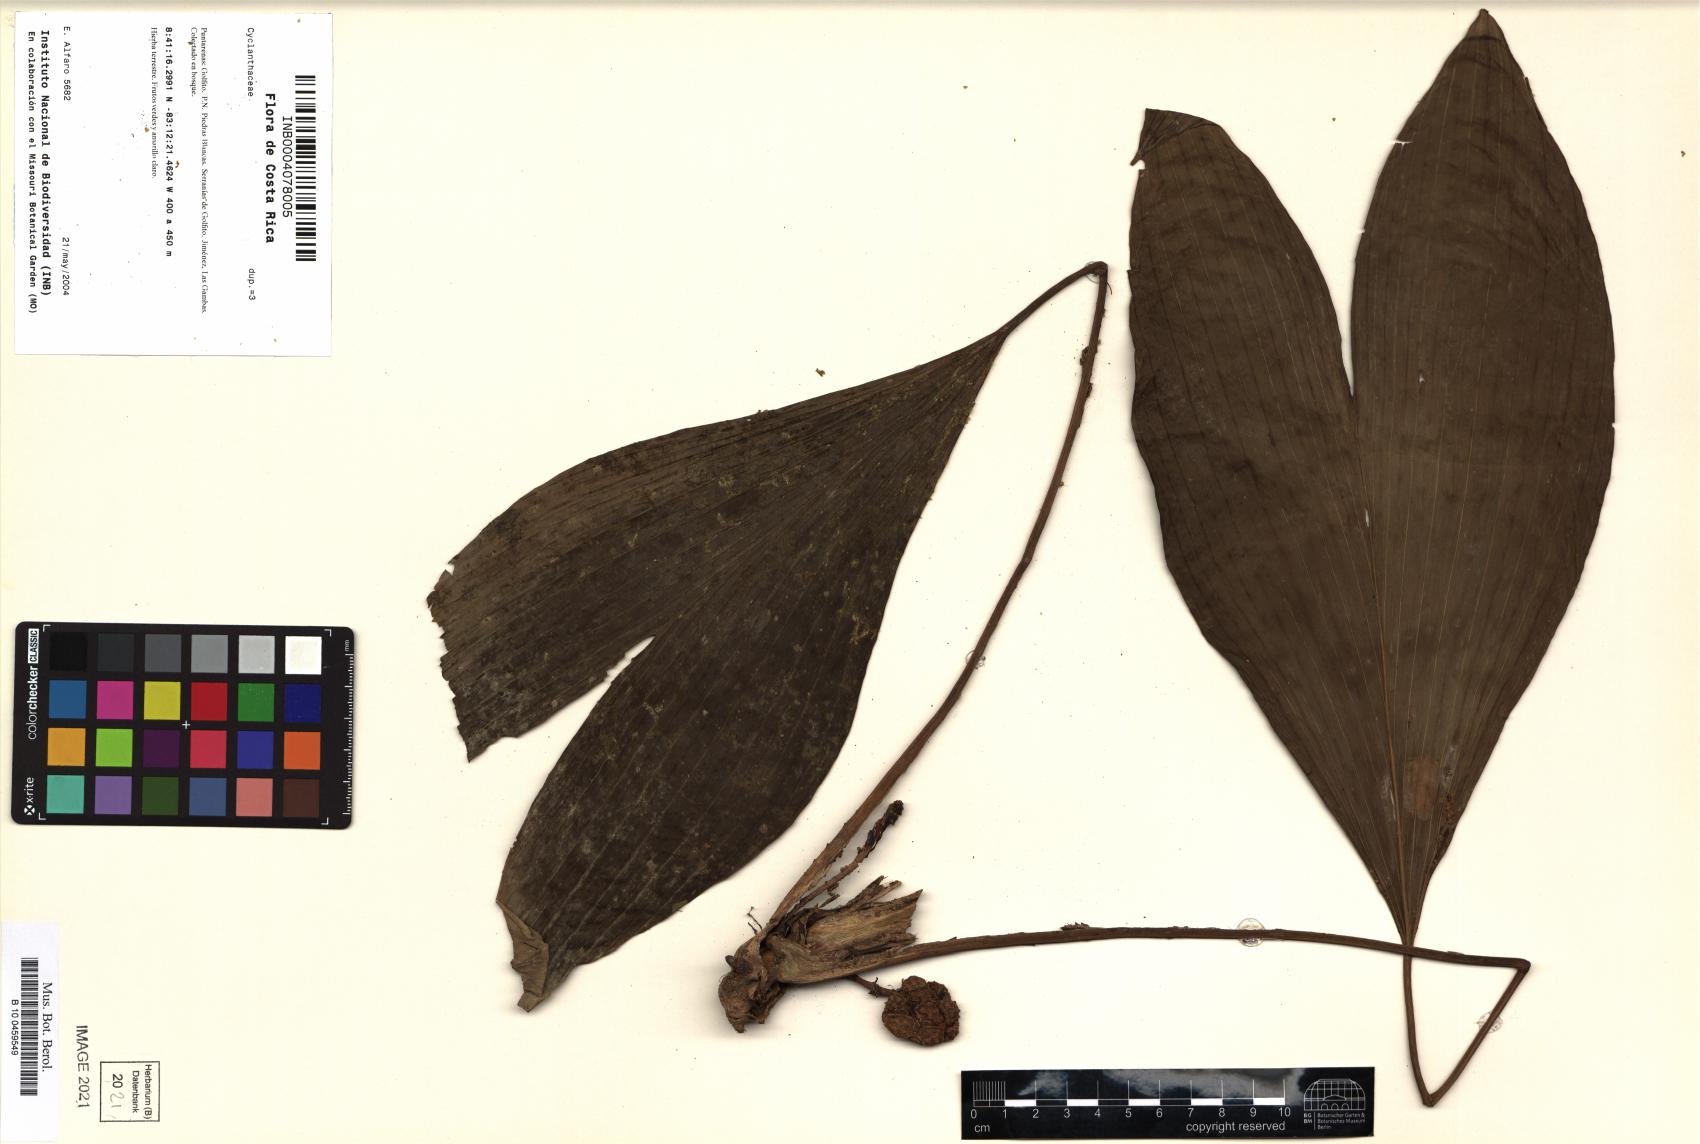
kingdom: Plantae
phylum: Tracheophyta
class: Liliopsida
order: Pandanales
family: Cyclanthaceae
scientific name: Cyclanthaceae
